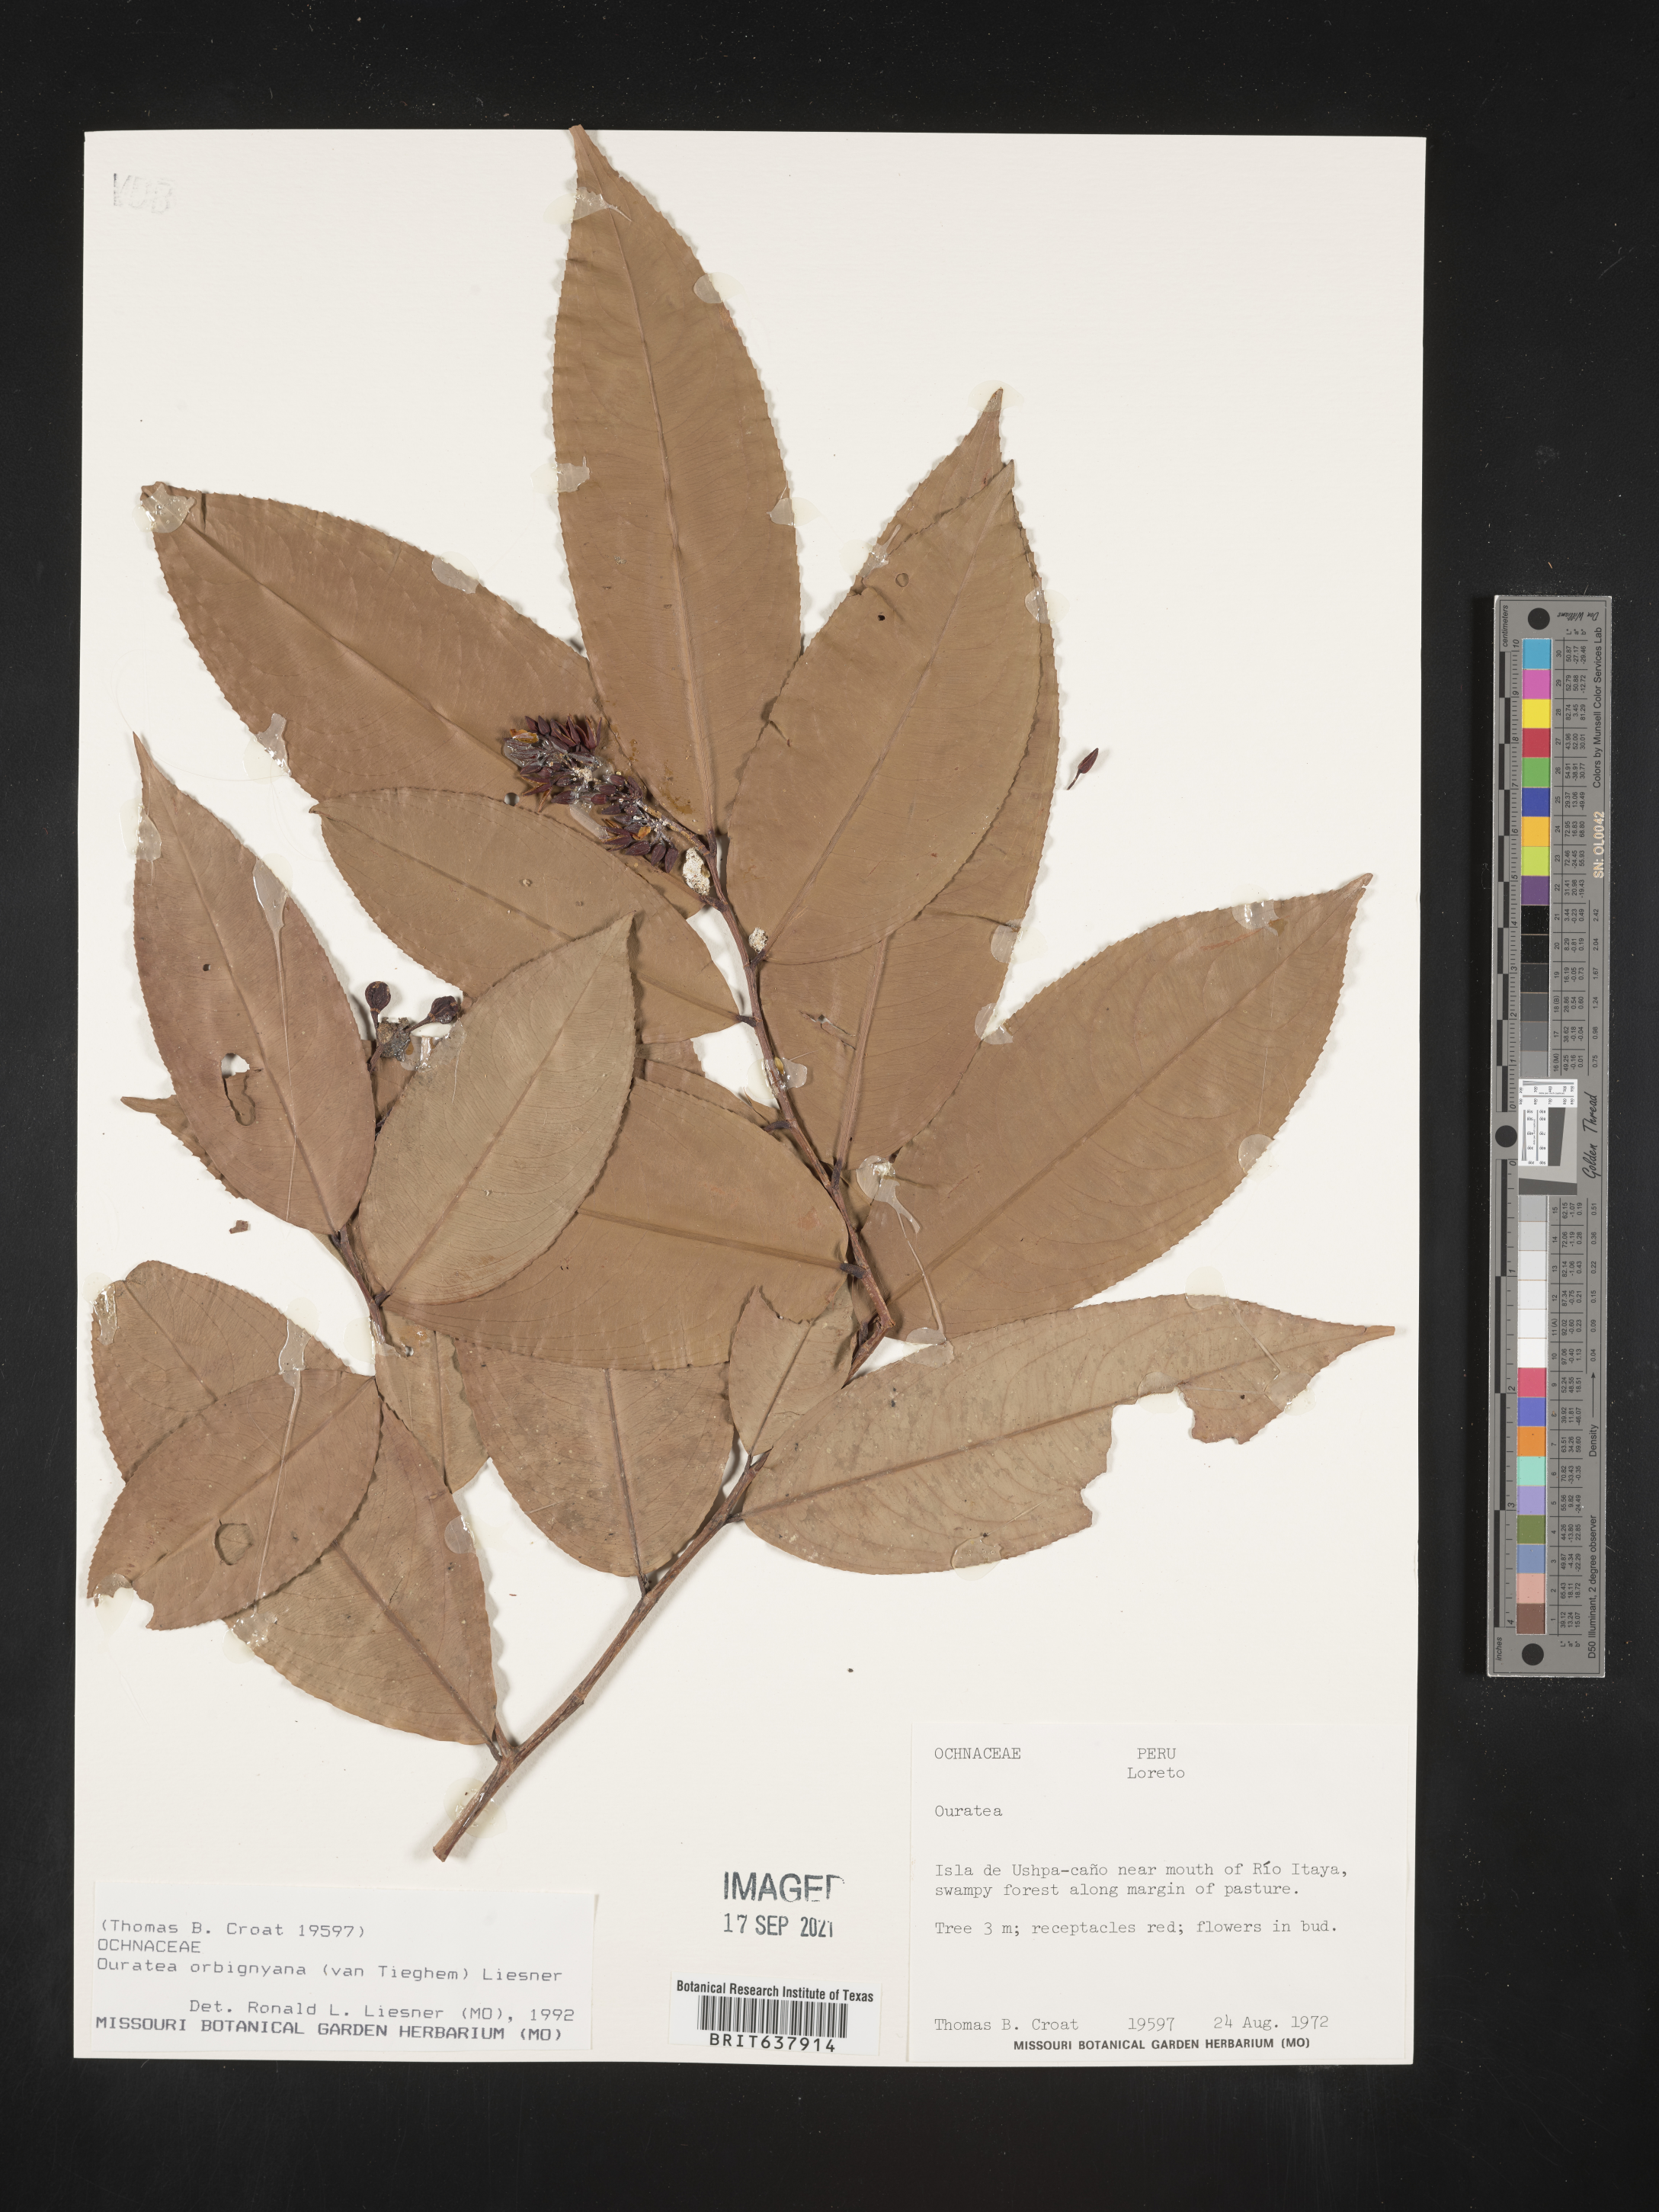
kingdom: Plantae
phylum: Tracheophyta
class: Magnoliopsida
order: Malpighiales
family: Ochnaceae
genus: Ouratea
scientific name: Ouratea
